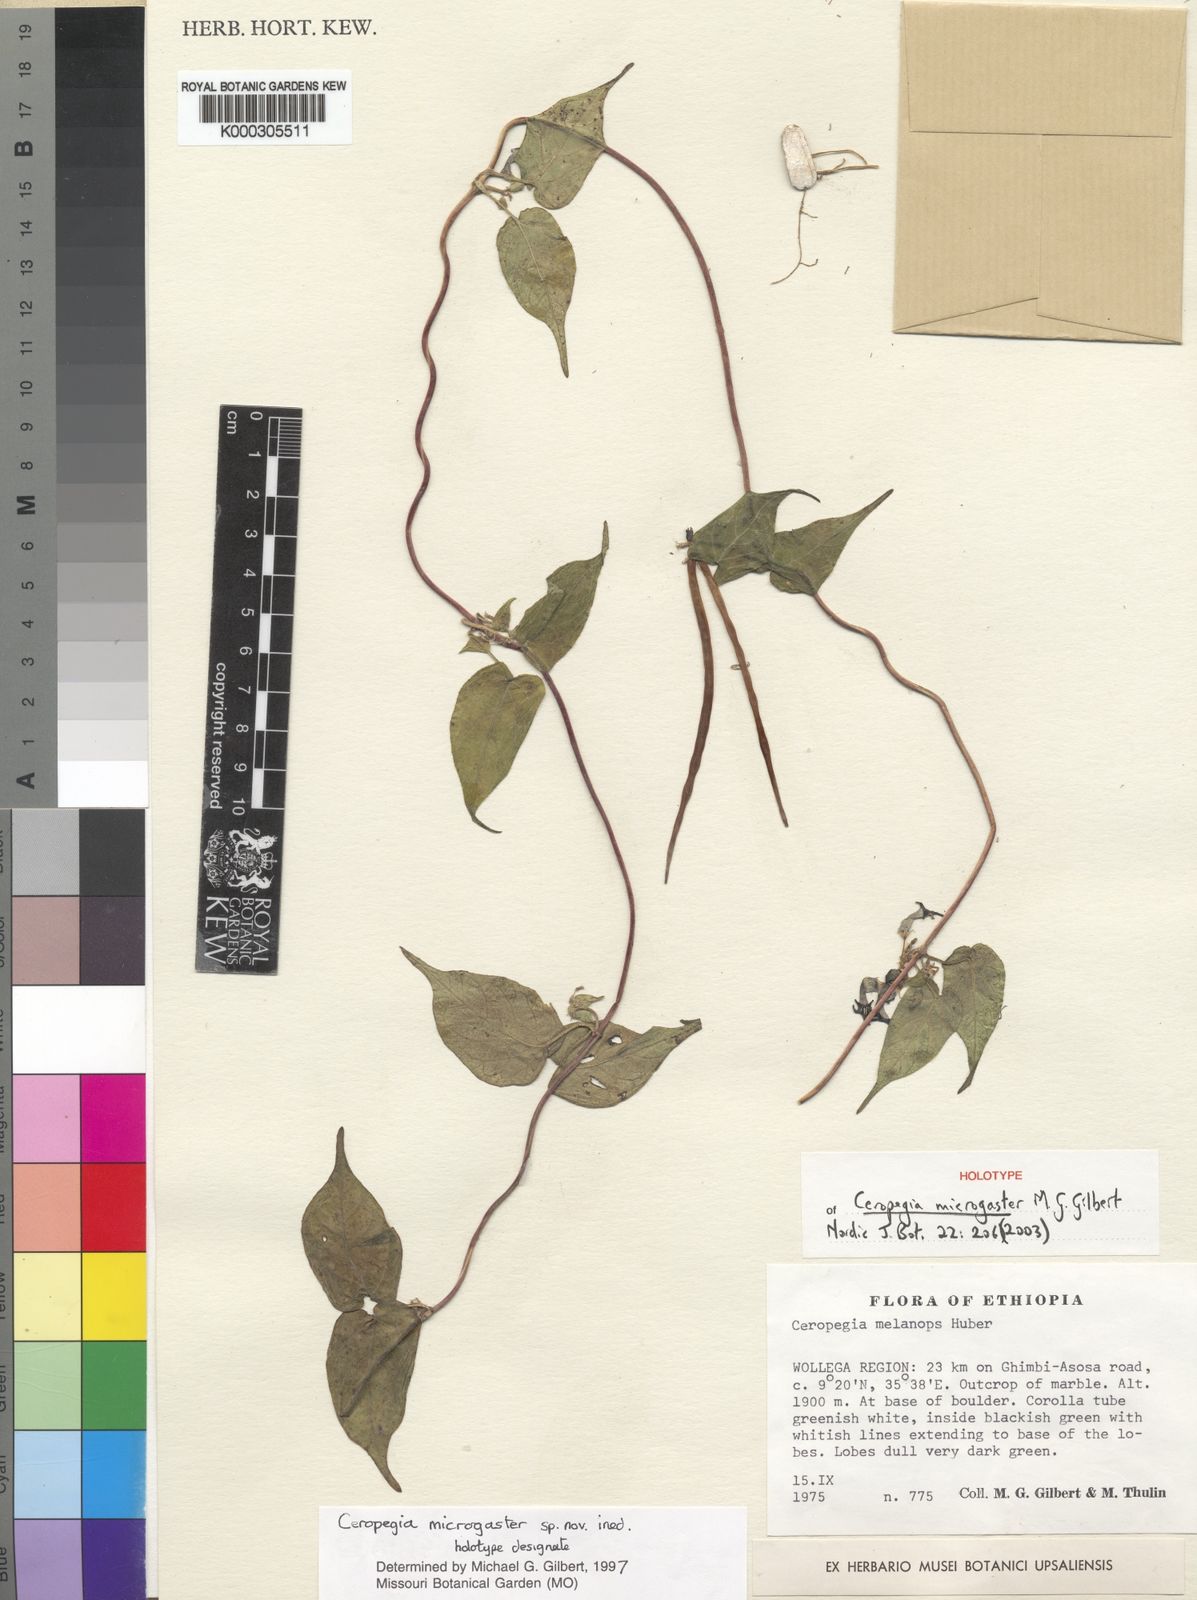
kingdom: Plantae
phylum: Tracheophyta
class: Magnoliopsida
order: Gentianales
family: Apocynaceae
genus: Ceropegia
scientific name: Ceropegia melanops
